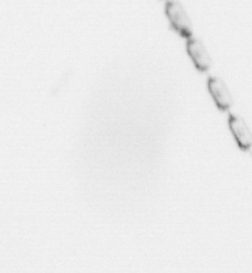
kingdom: Chromista
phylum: Ochrophyta
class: Bacillariophyceae
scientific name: Bacillariophyceae
